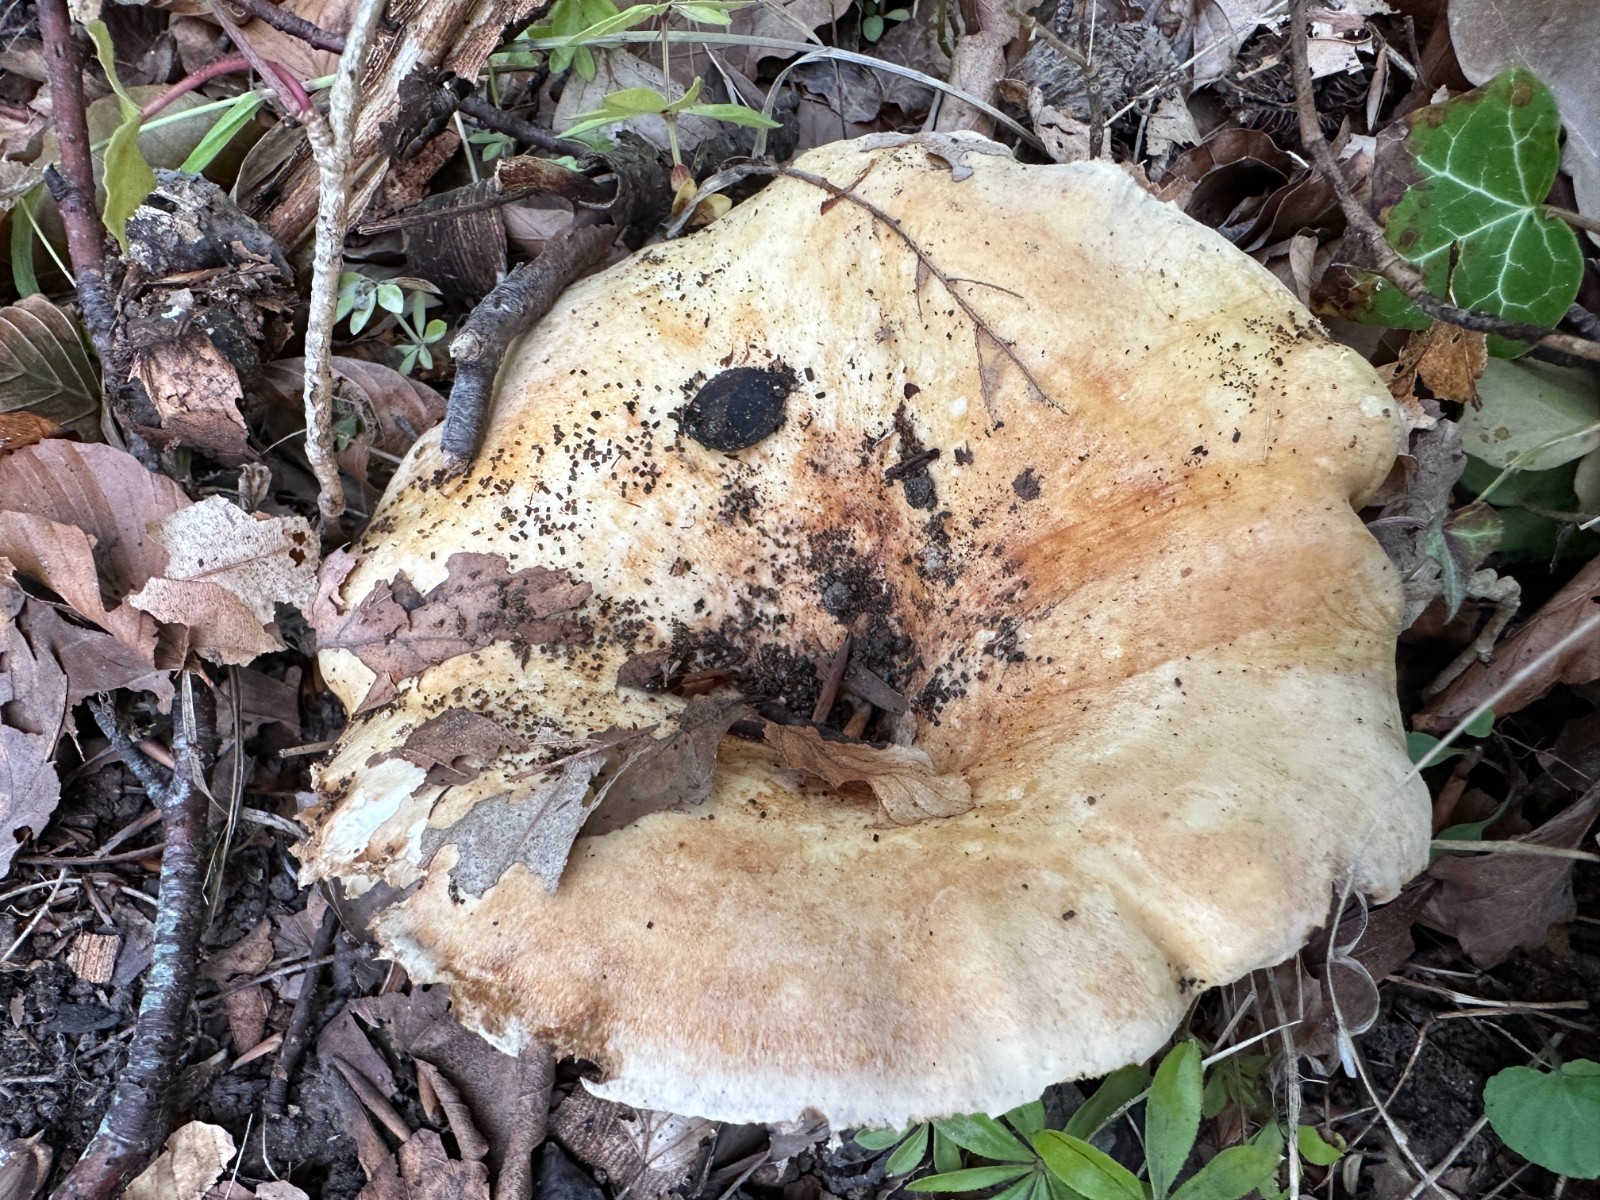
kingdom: Fungi
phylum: Basidiomycota
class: Agaricomycetes
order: Russulales
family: Russulaceae
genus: Lactarius
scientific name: Lactarius evosmus
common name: bæltet mælkehat
